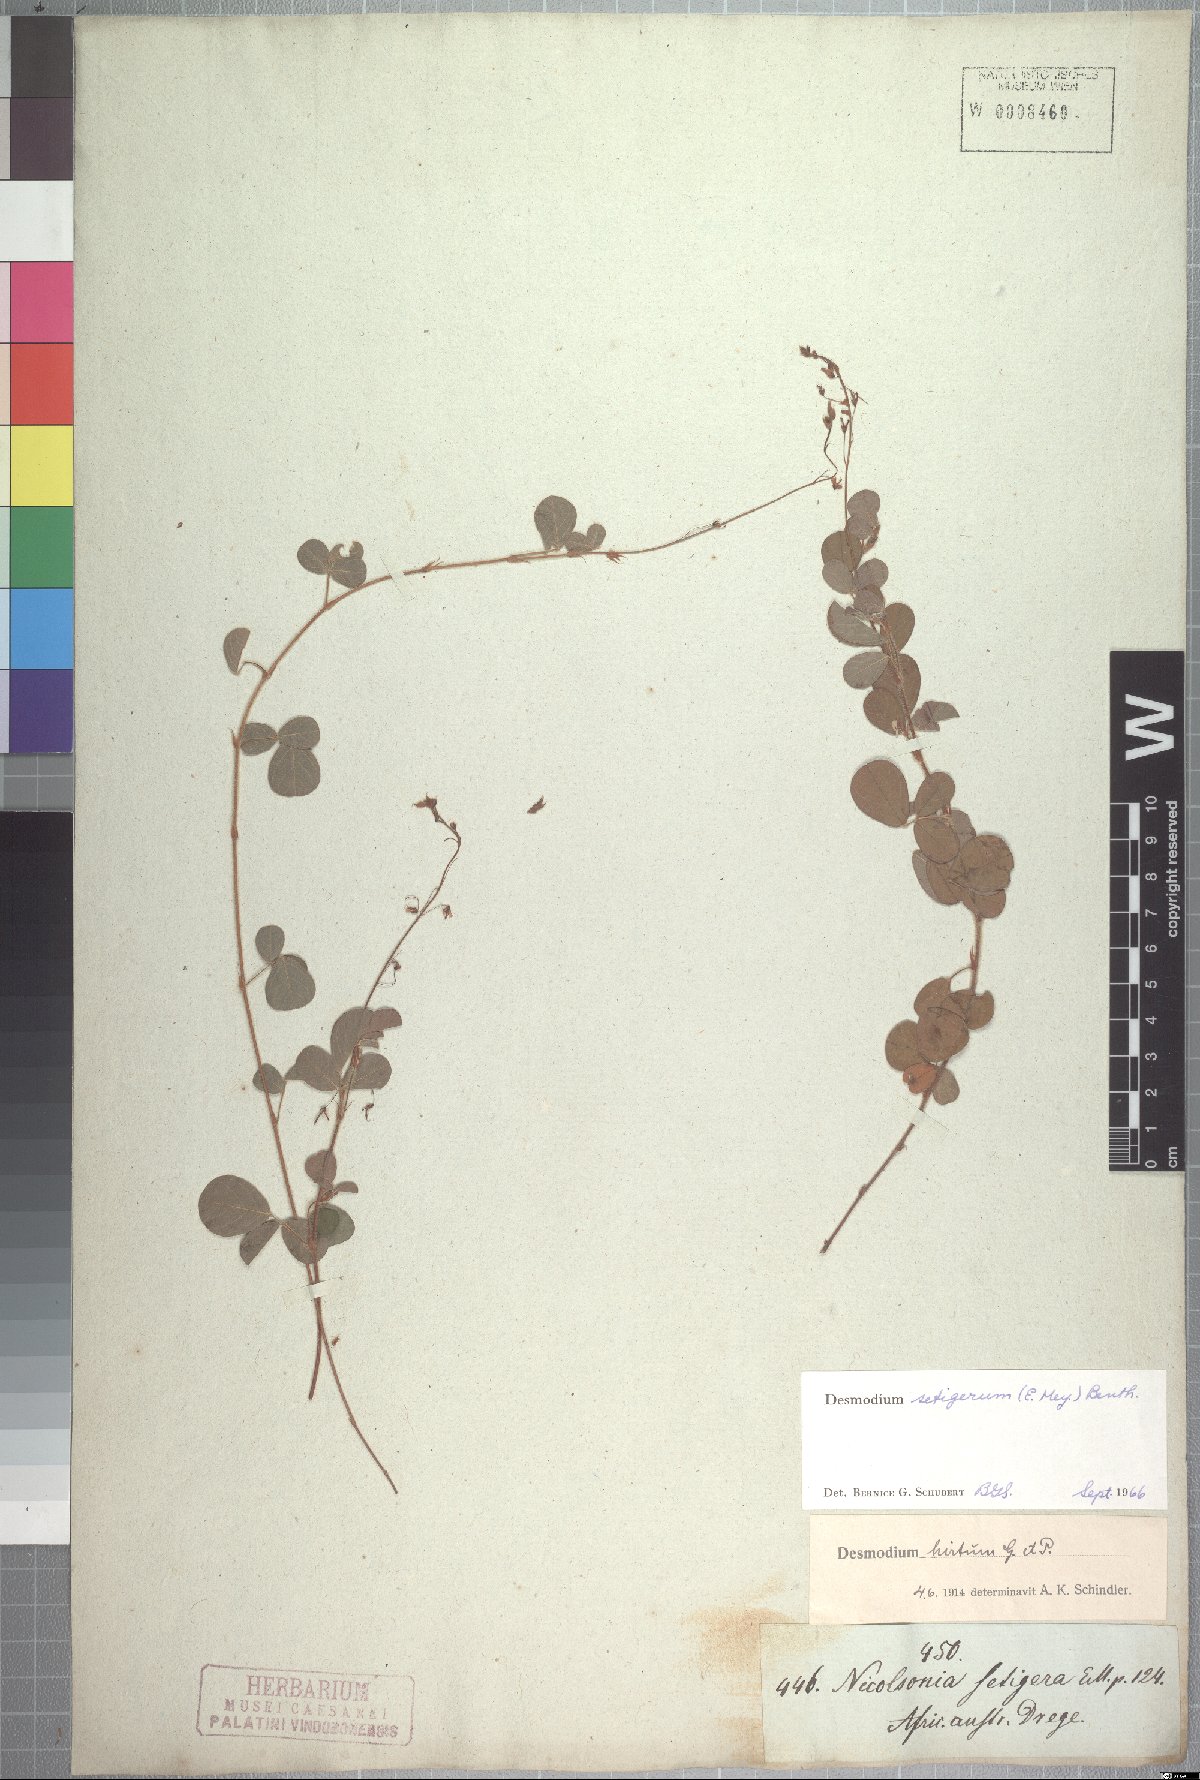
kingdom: Plantae
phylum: Tracheophyta
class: Magnoliopsida
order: Fabales
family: Fabaceae
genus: Grona
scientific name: Grona setigera
